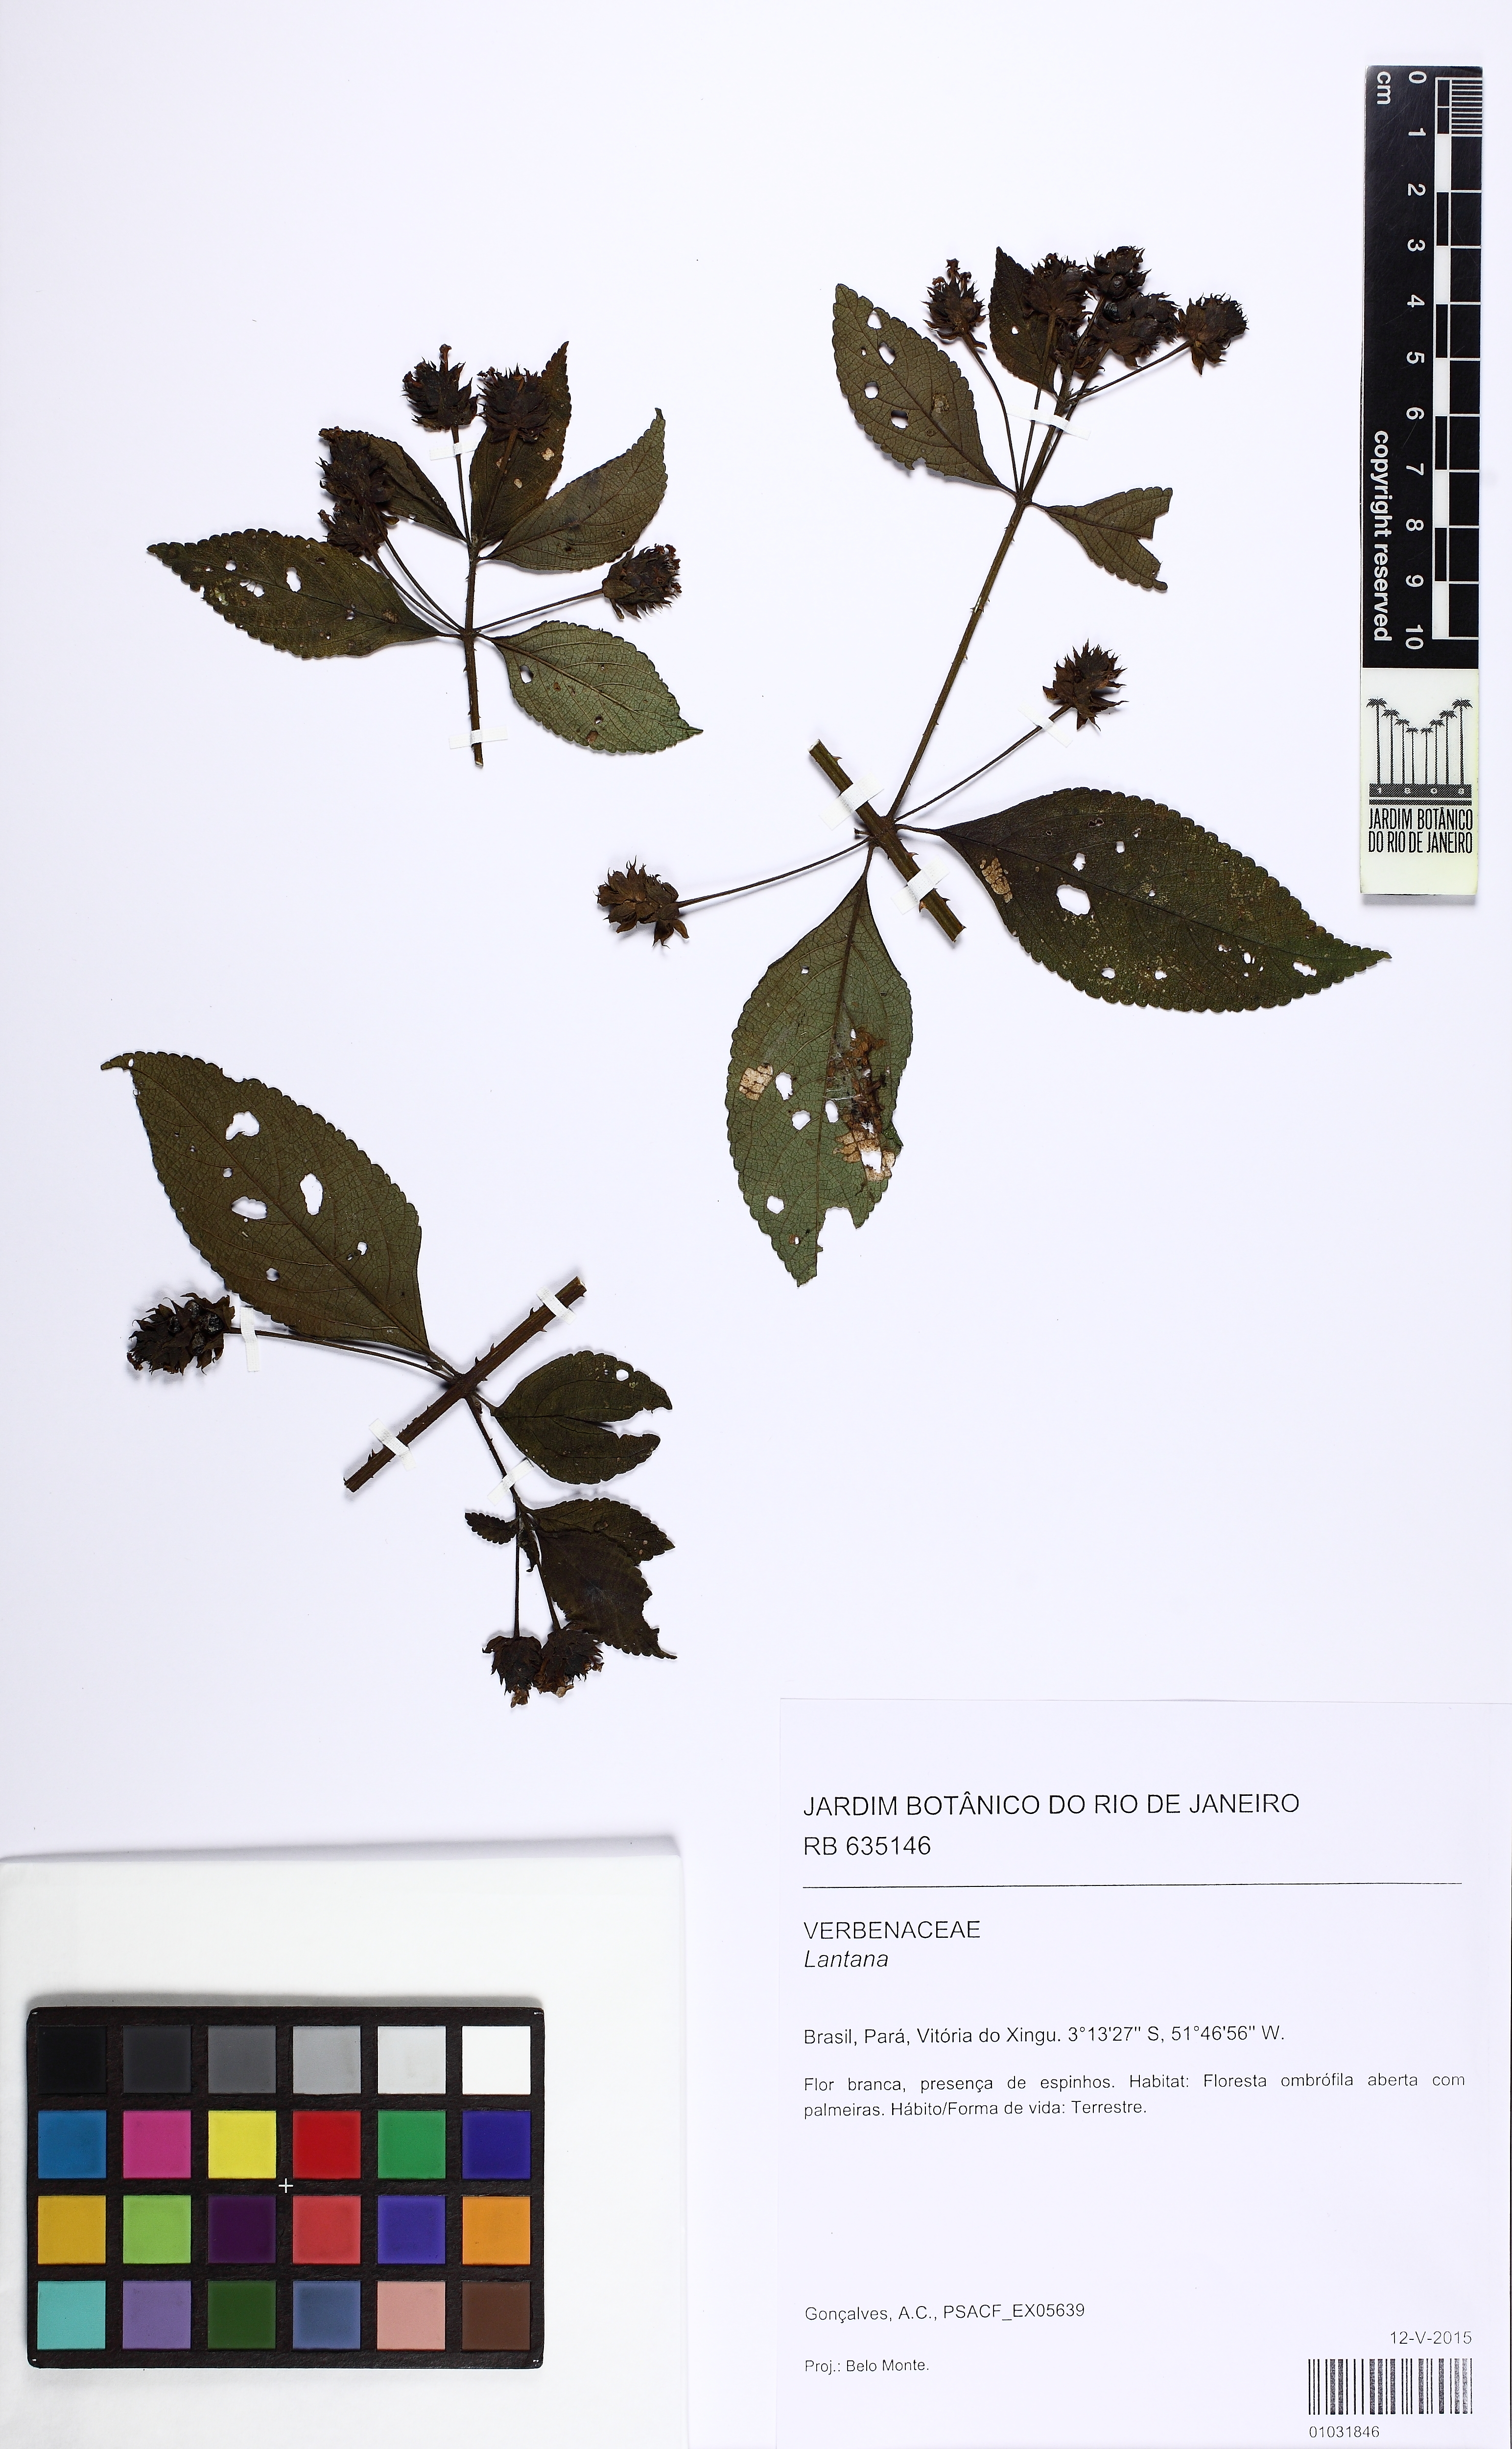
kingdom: Plantae
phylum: Tracheophyta
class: Magnoliopsida
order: Lamiales
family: Verbenaceae
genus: Lantana
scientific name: Lantana
